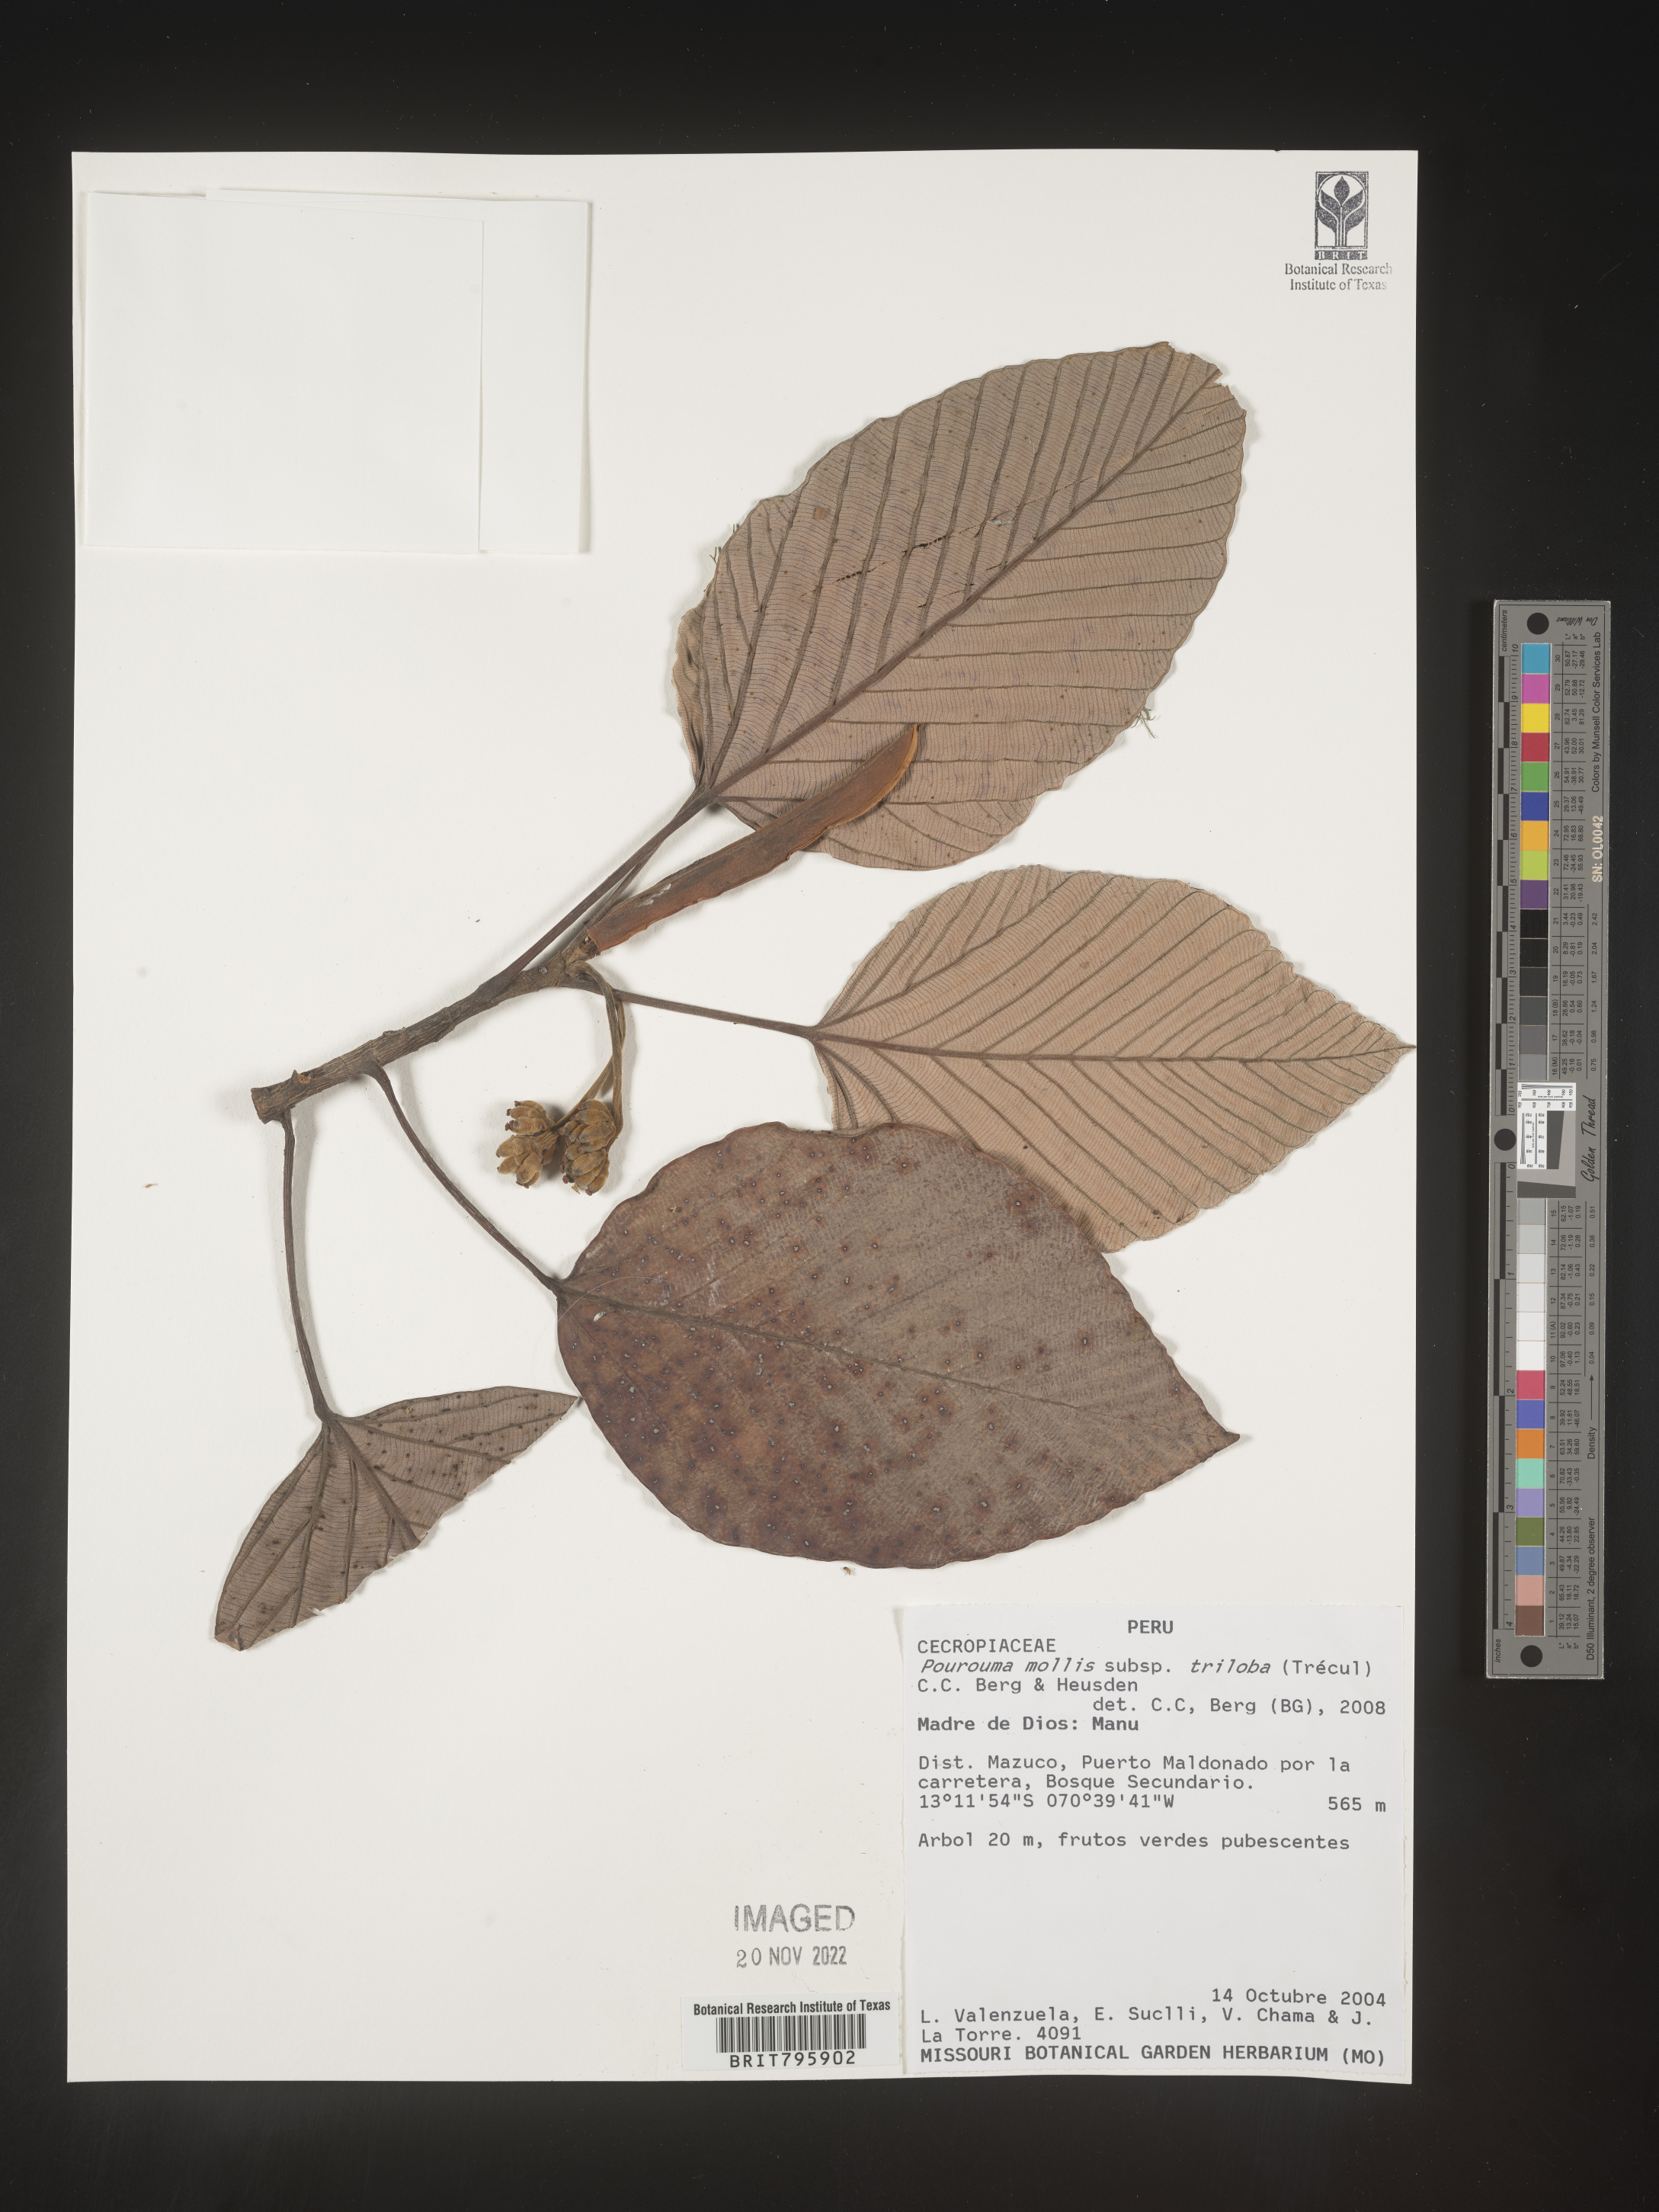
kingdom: Plantae
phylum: Tracheophyta
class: Magnoliopsida
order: Rosales
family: Urticaceae
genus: Pourouma
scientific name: Pourouma
